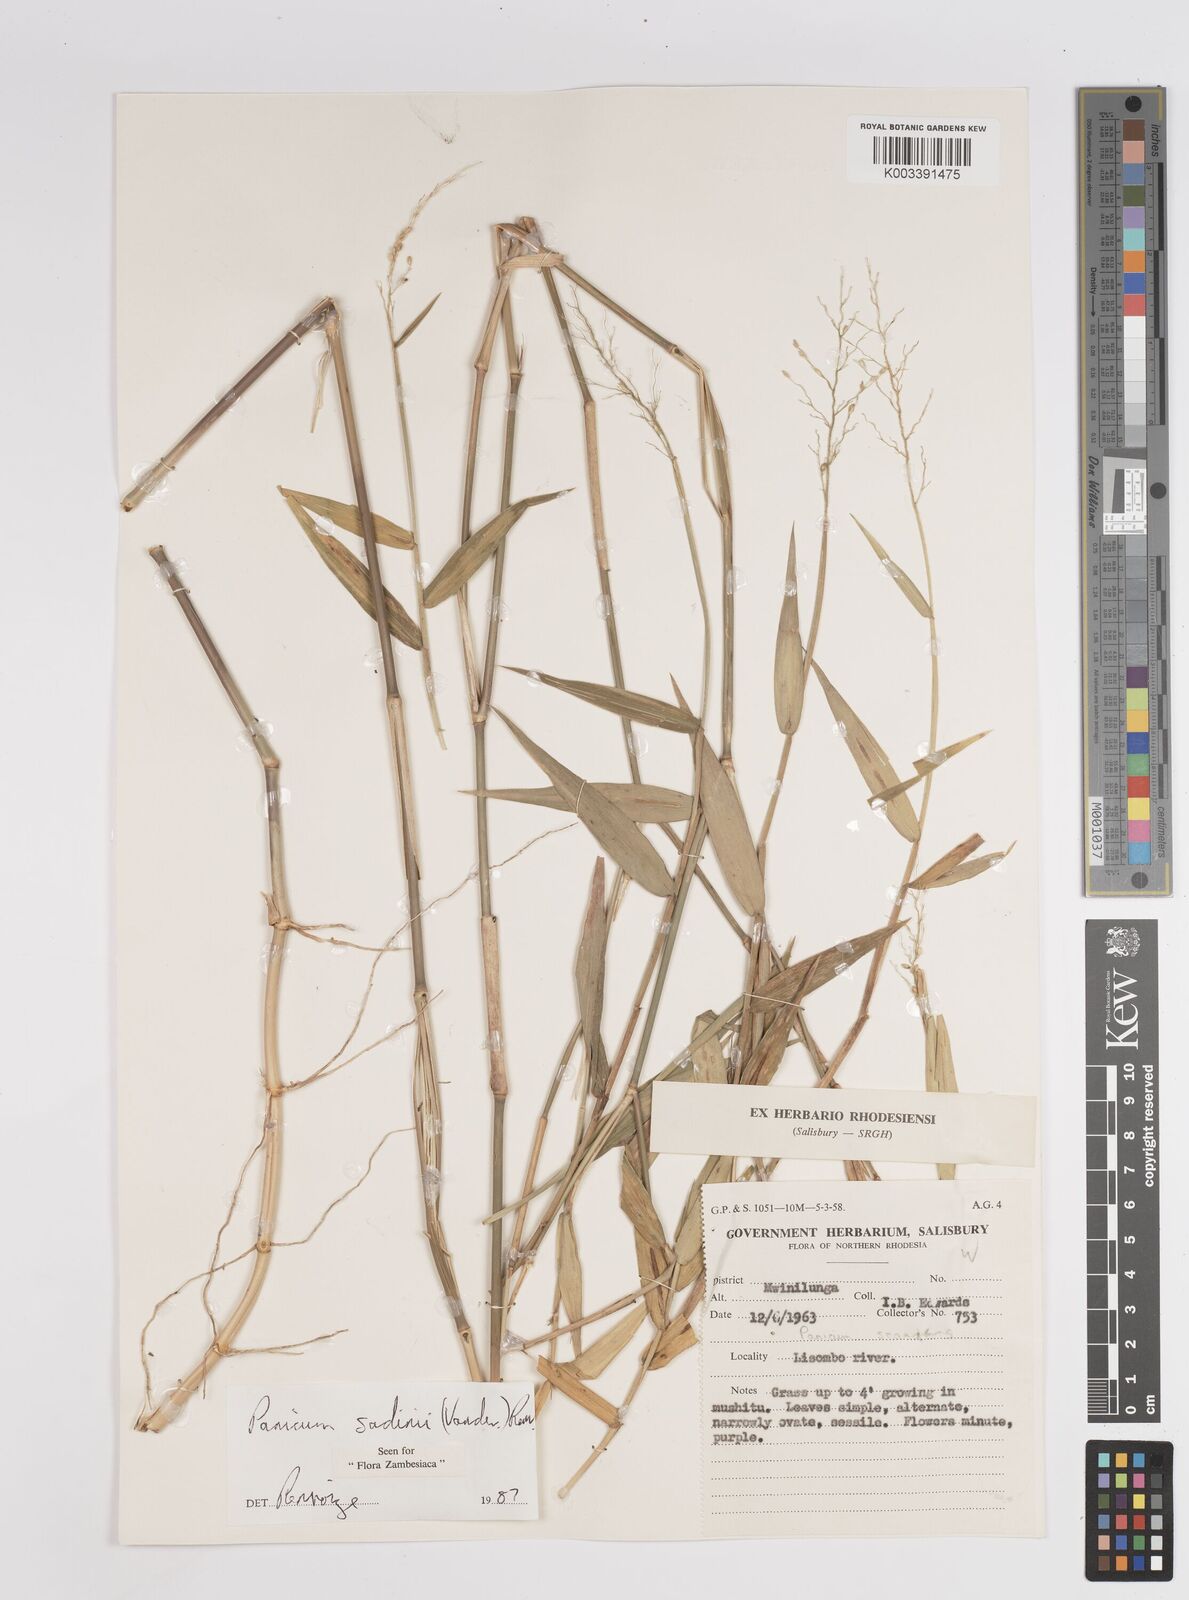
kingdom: Plantae
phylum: Tracheophyta
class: Liliopsida
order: Poales
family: Poaceae
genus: Adenochloa
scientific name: Adenochloa sadinii
